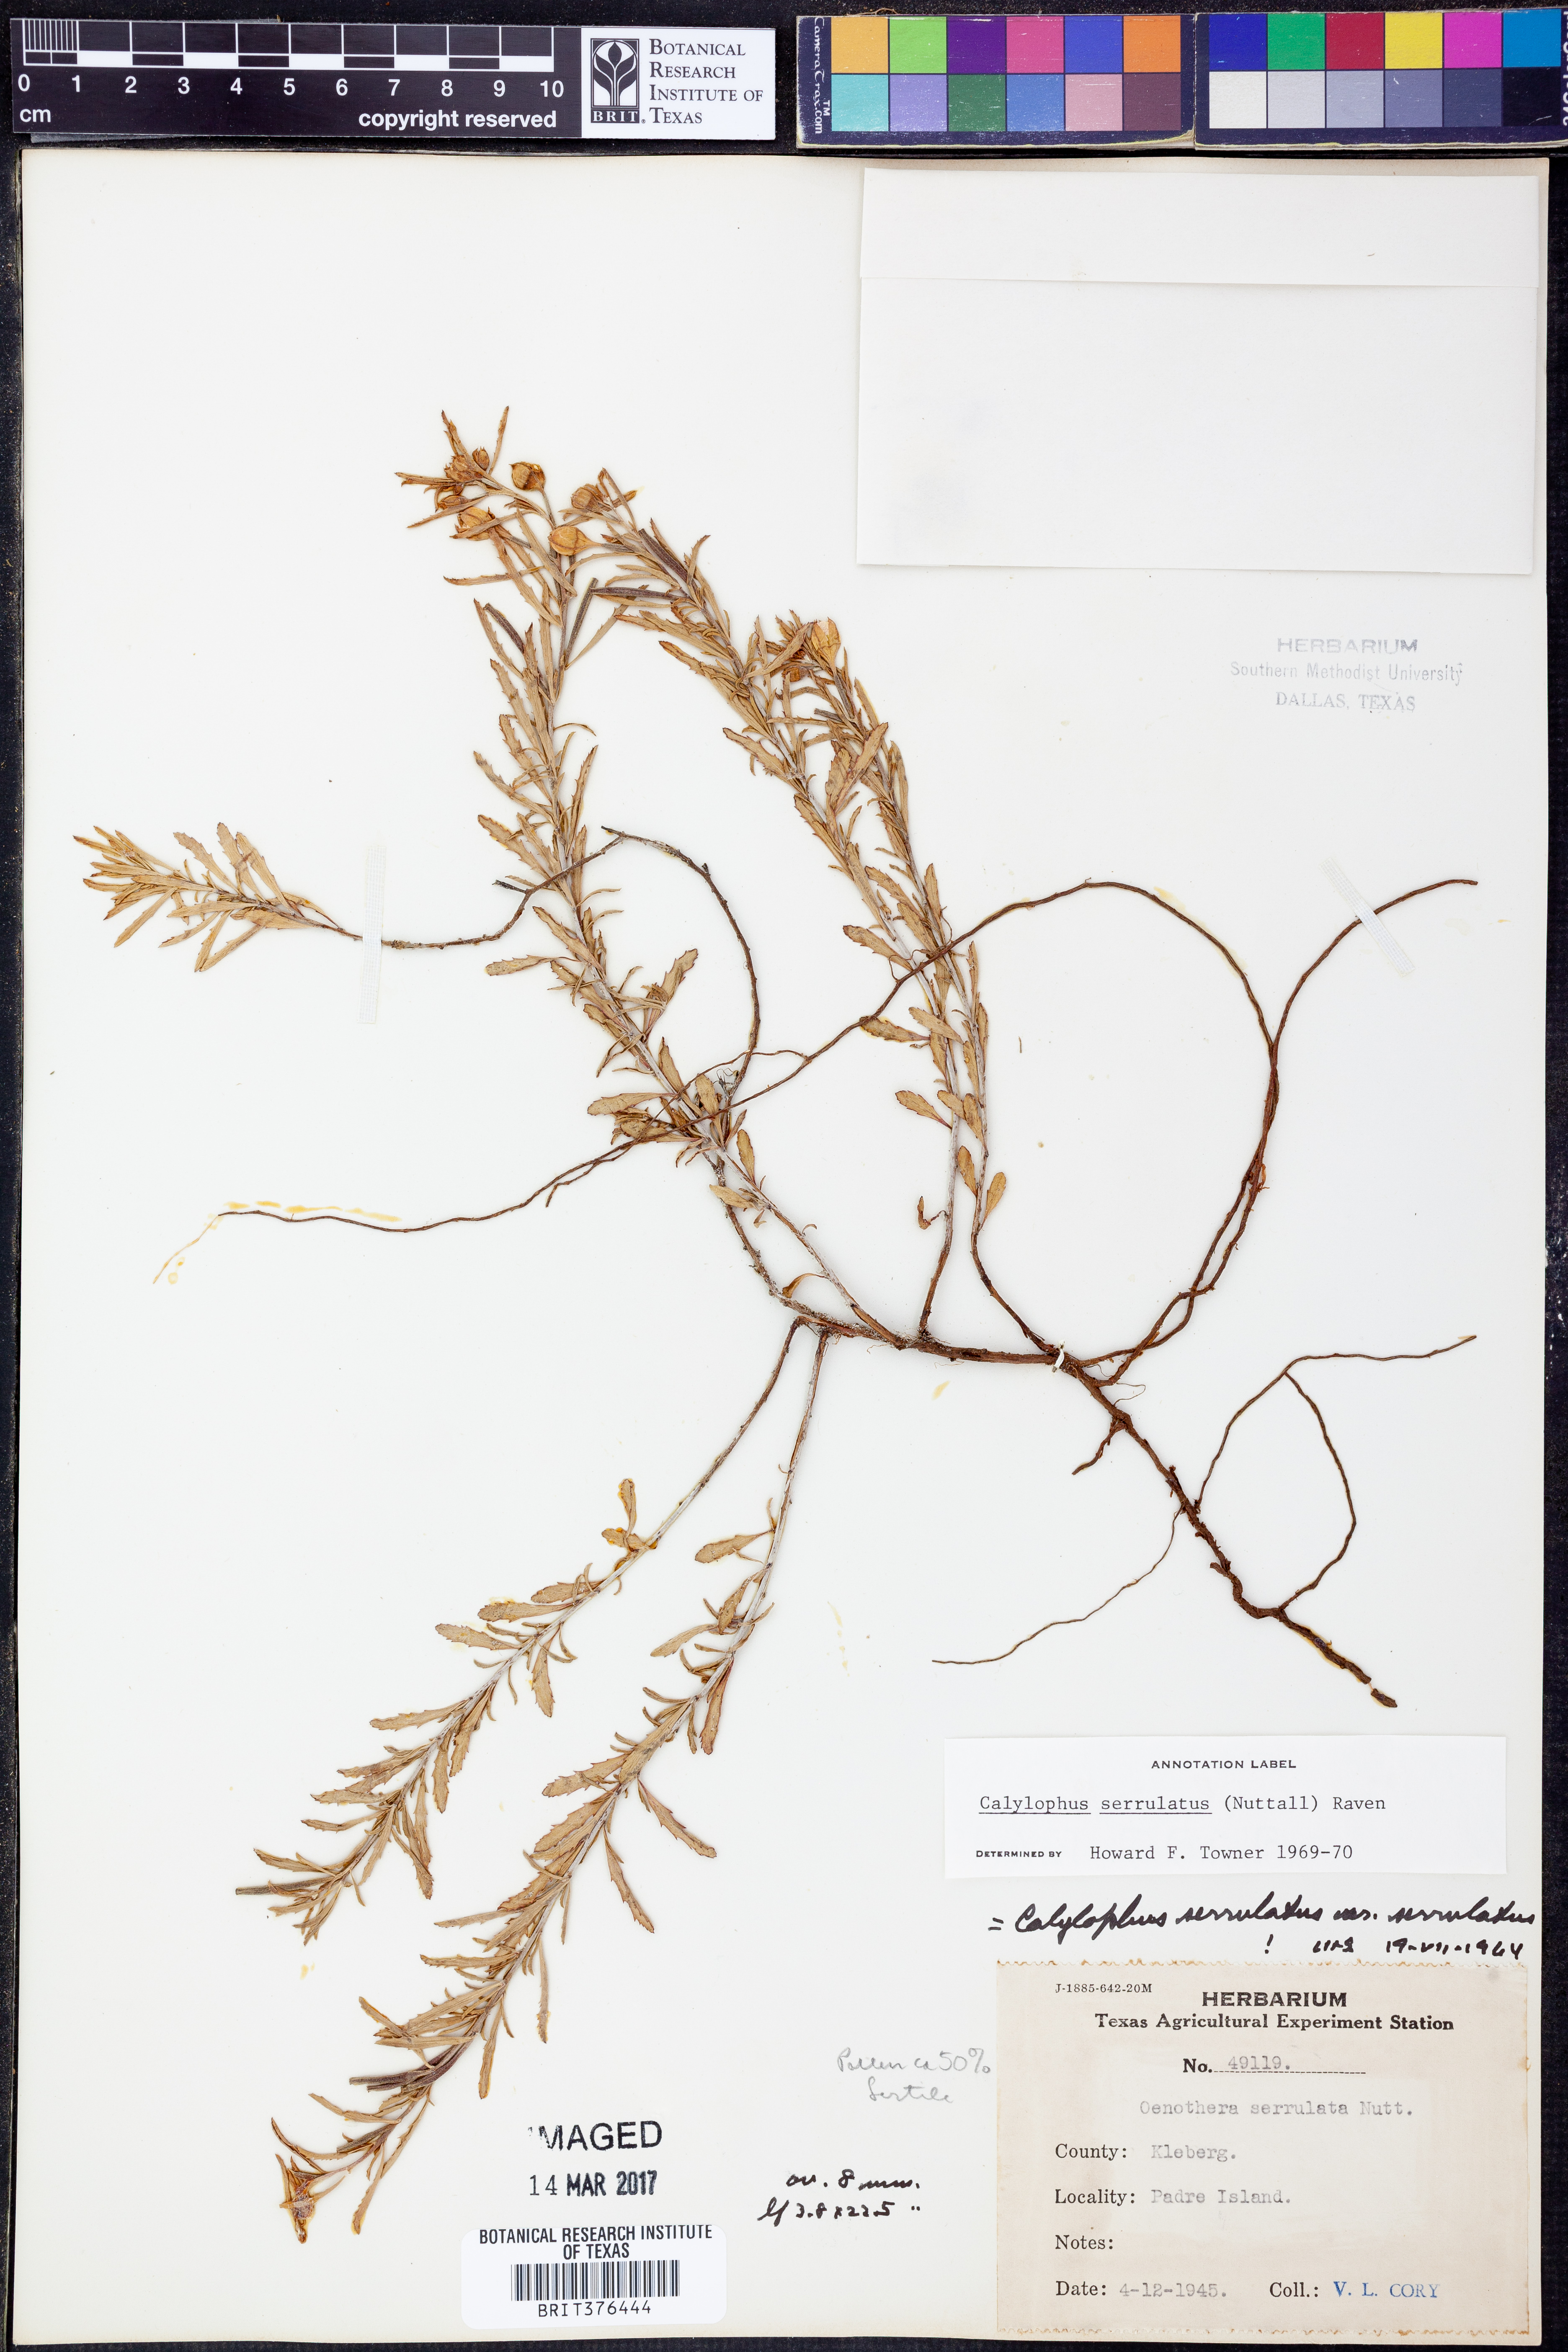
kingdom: Plantae
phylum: Tracheophyta
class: Magnoliopsida
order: Myrtales
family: Onagraceae
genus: Oenothera
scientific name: Oenothera serrulata
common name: Half-shrub calylophus
